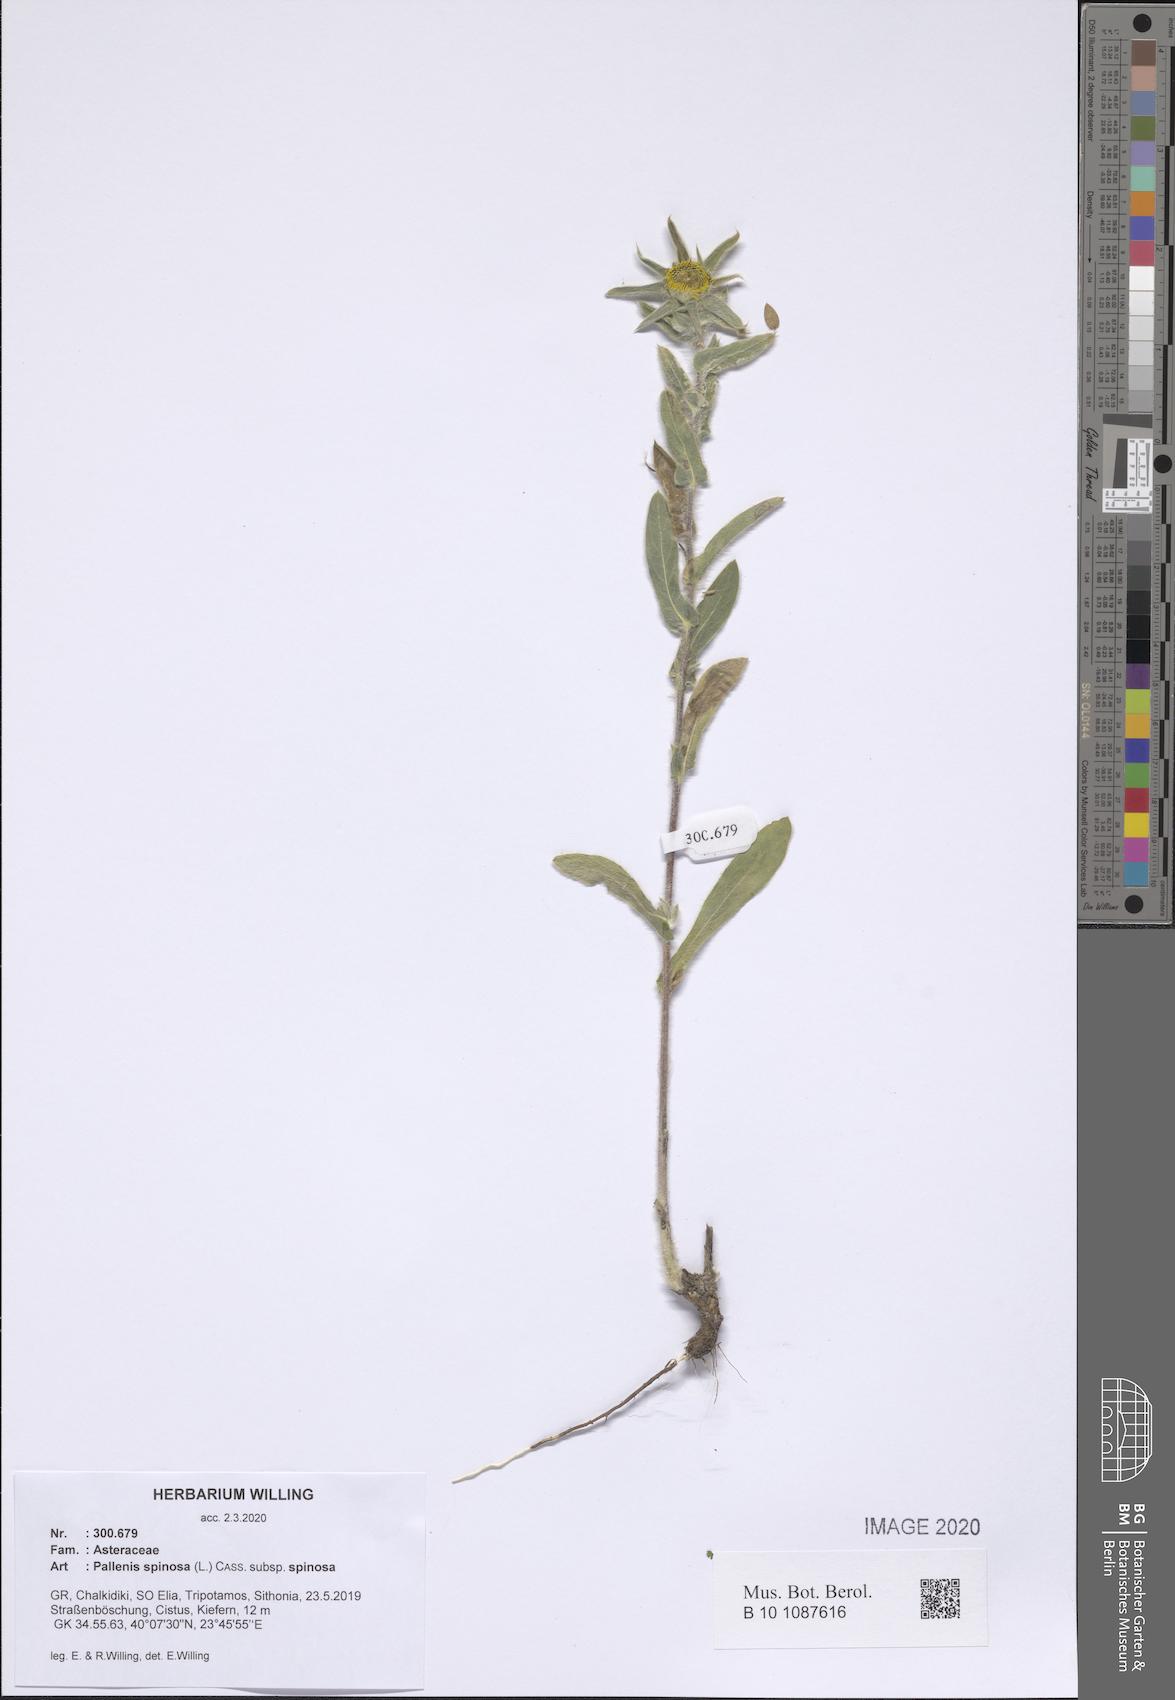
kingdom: Plantae
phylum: Tracheophyta
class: Magnoliopsida
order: Asterales
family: Asteraceae
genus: Pallenis
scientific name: Pallenis spinosa
